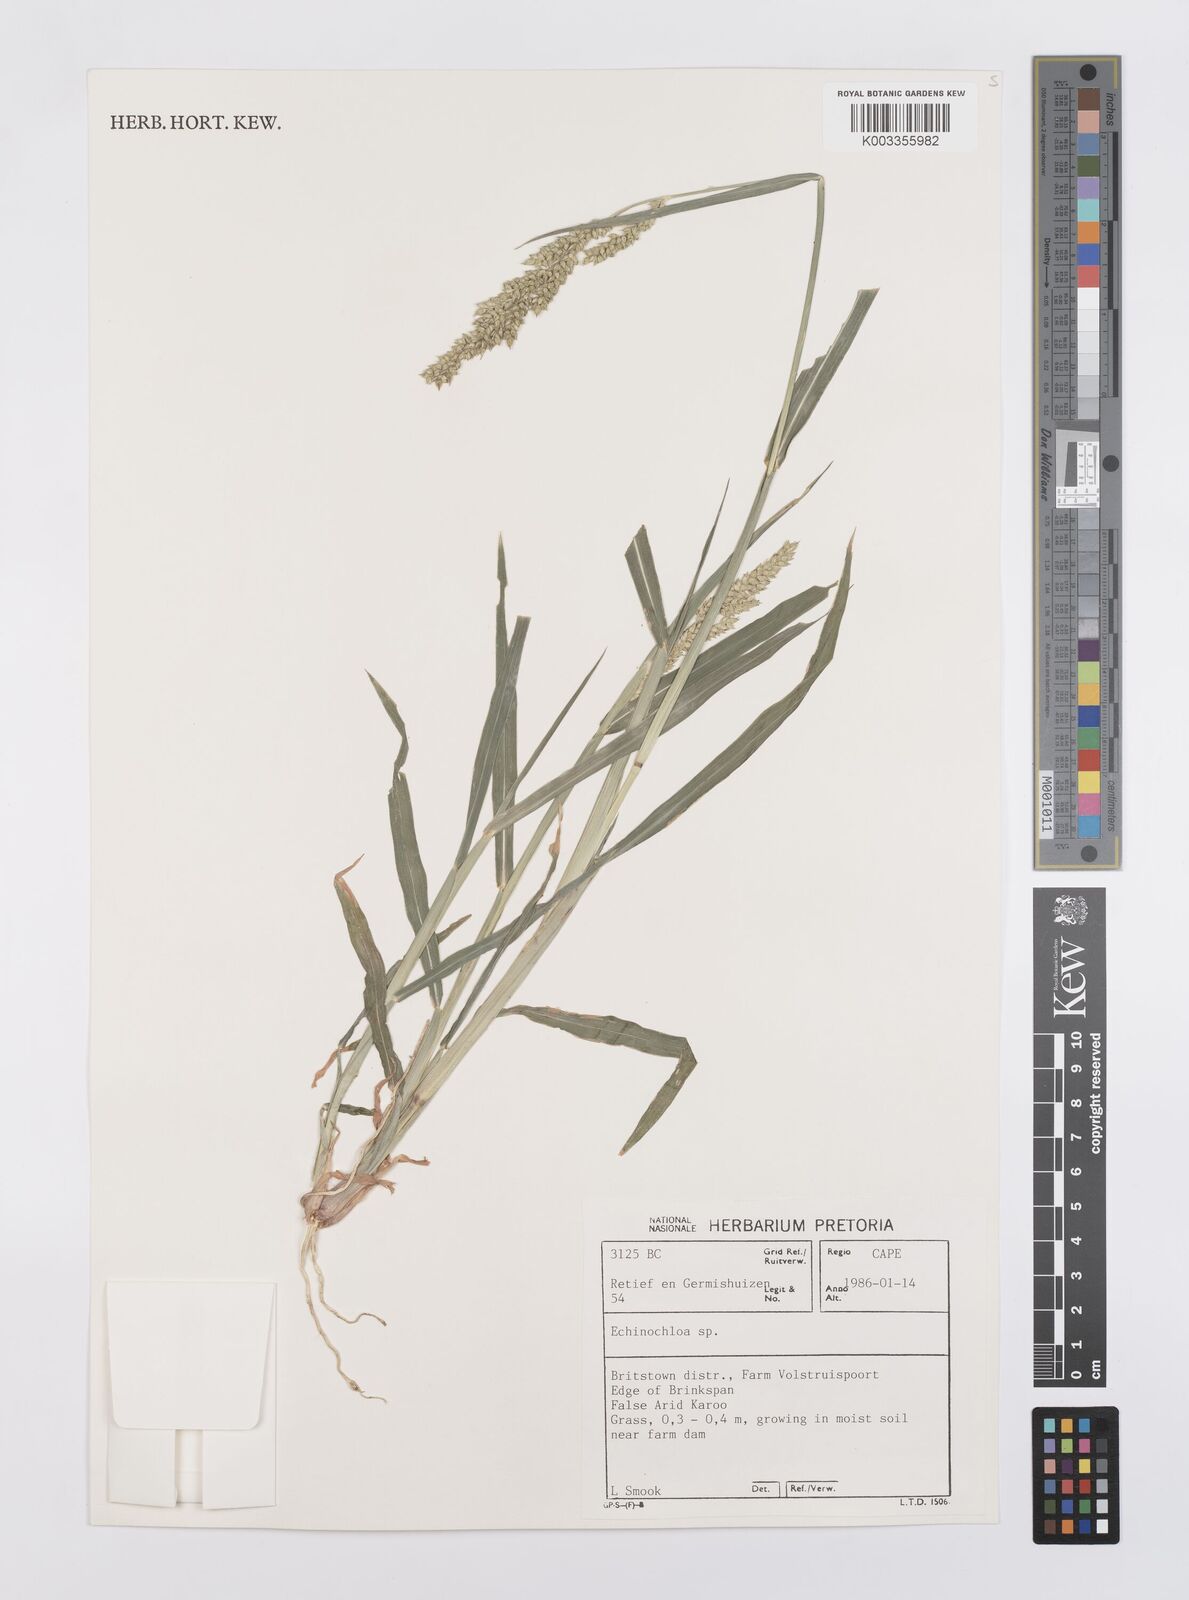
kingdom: Plantae
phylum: Tracheophyta
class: Liliopsida
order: Poales
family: Poaceae
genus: Echinochloa
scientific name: Echinochloa crus-galli
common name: Cockspur
